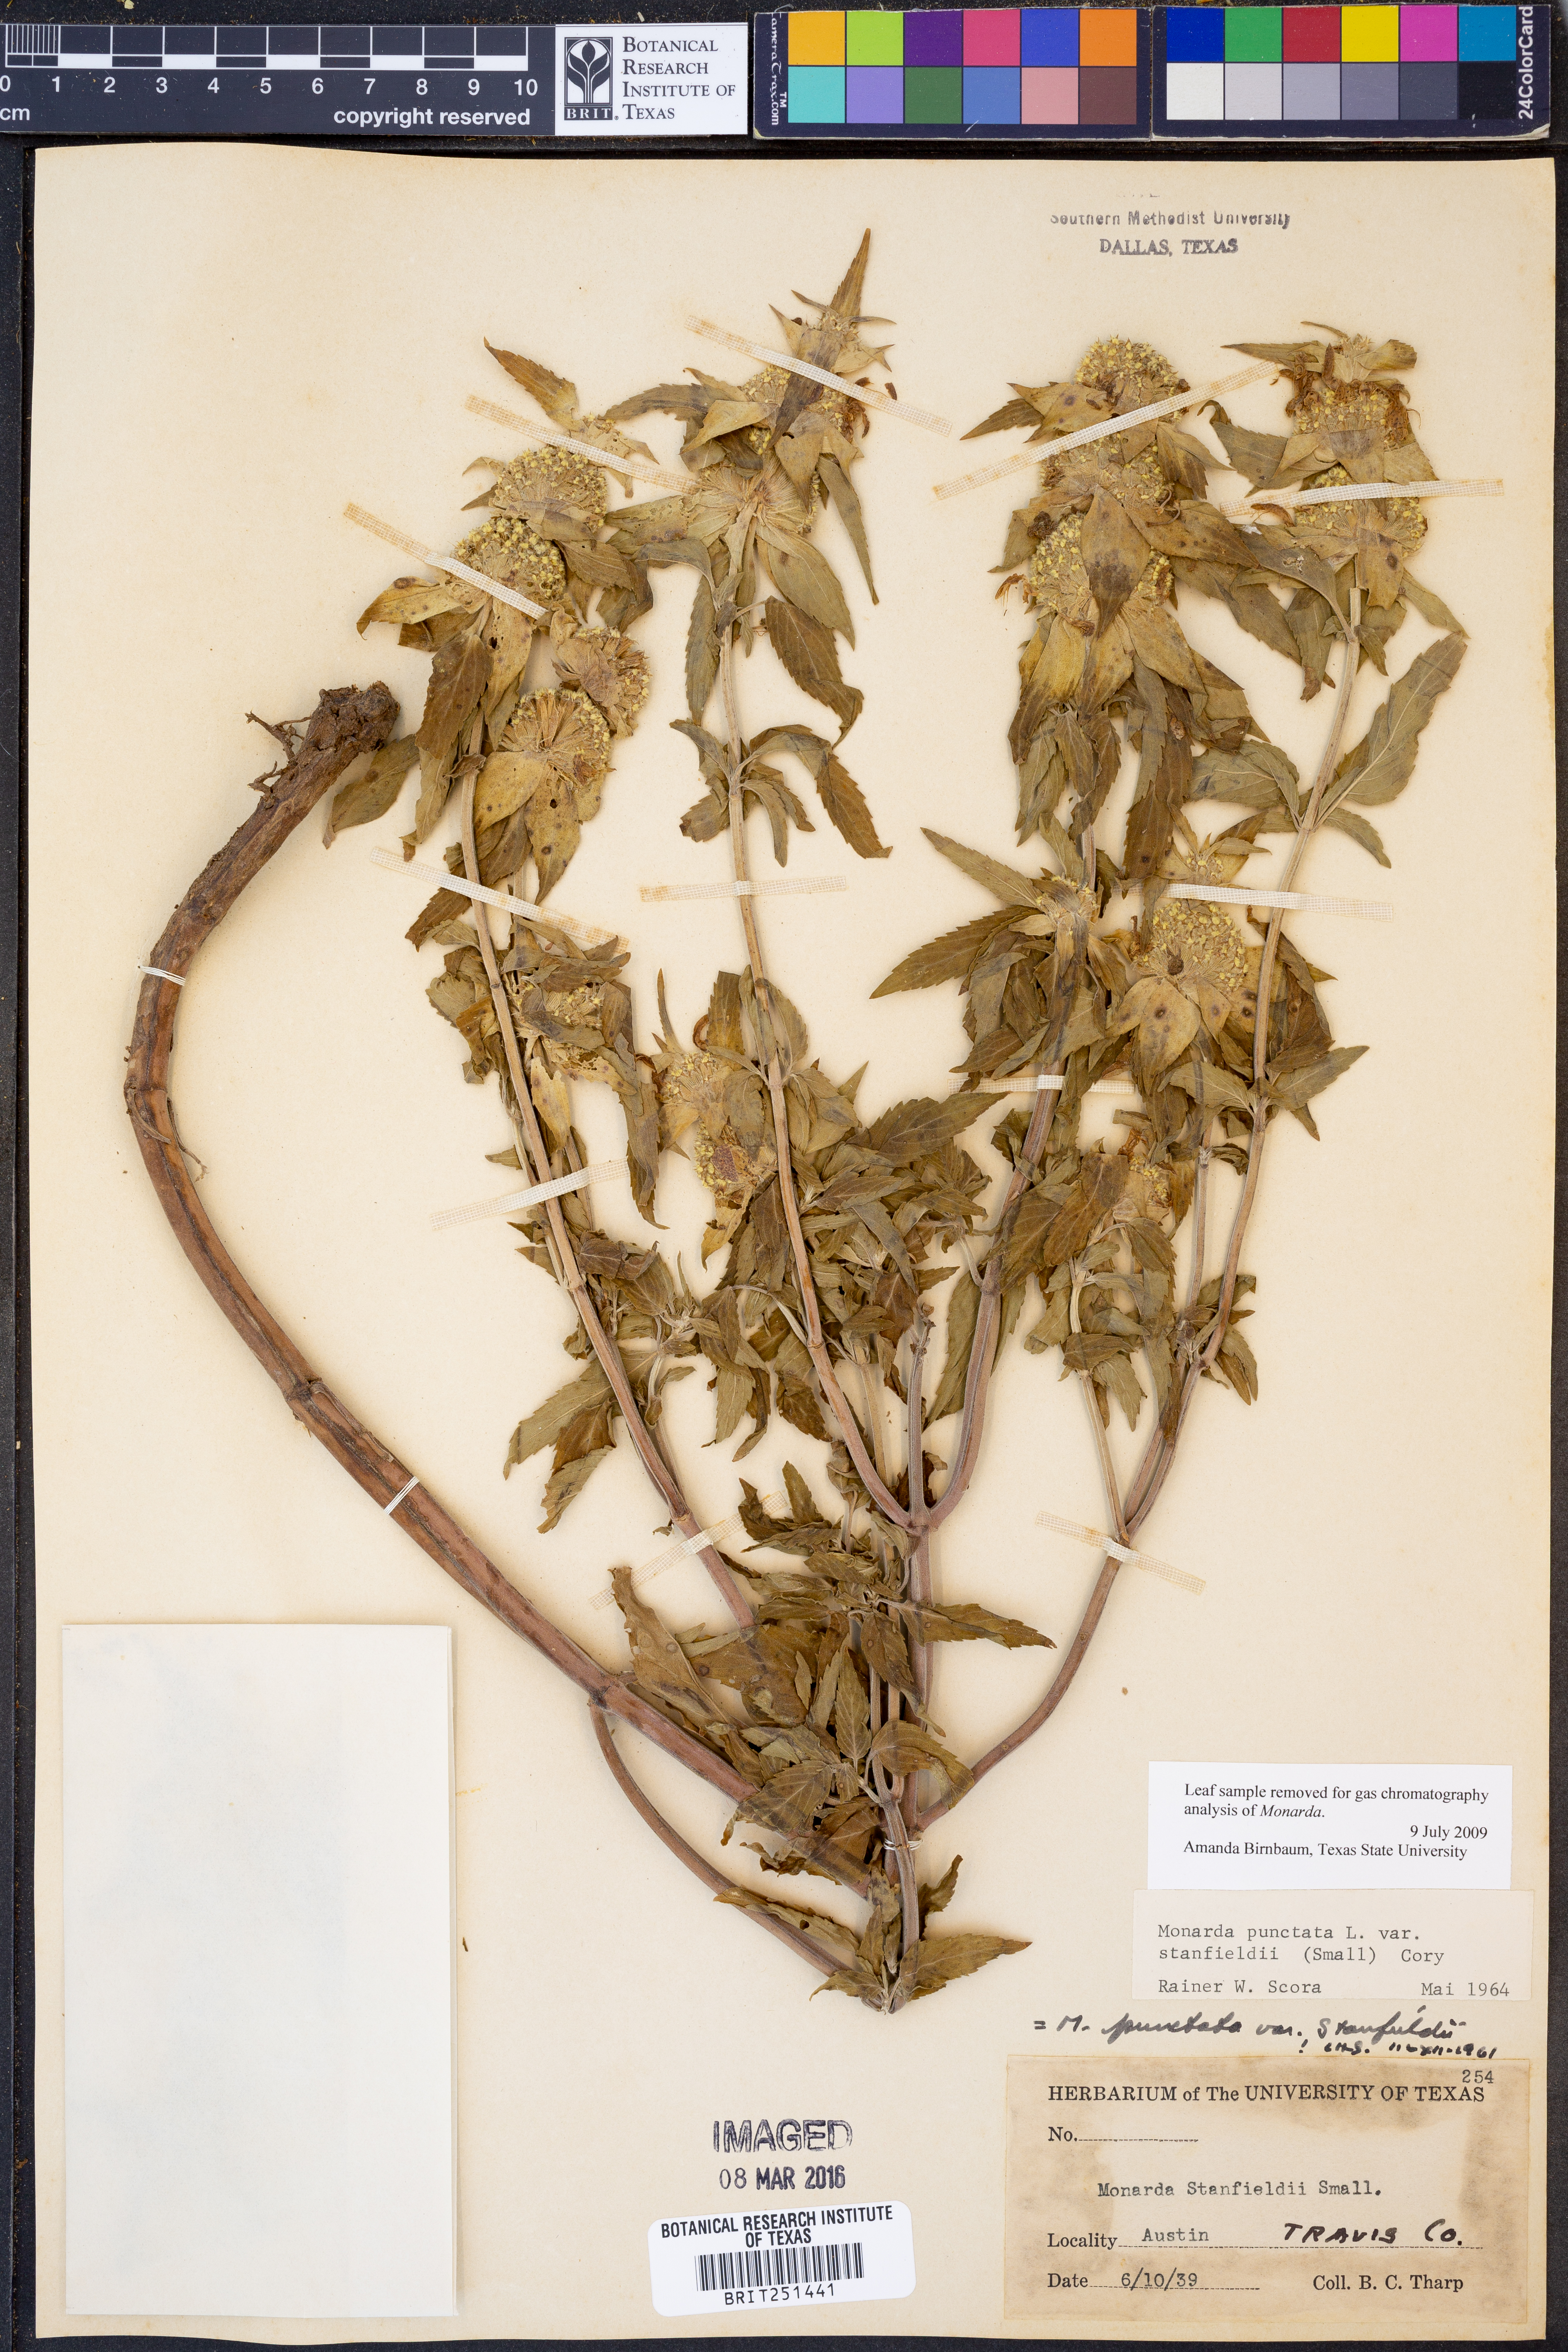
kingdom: Plantae
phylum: Tracheophyta
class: Magnoliopsida
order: Lamiales
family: Lamiaceae
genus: Monarda
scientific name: Monarda stanfieldii
